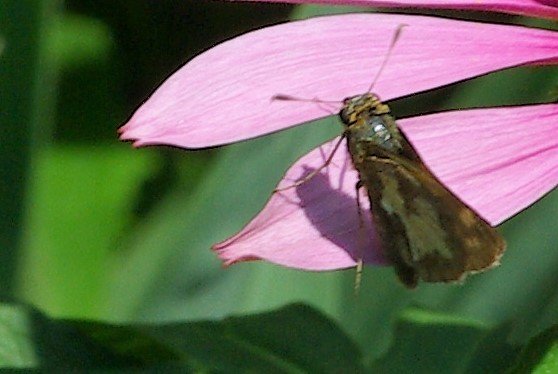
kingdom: Animalia
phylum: Arthropoda
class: Insecta
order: Lepidoptera
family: Hesperiidae
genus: Polites
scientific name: Polites coras
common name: Peck's Skipper
